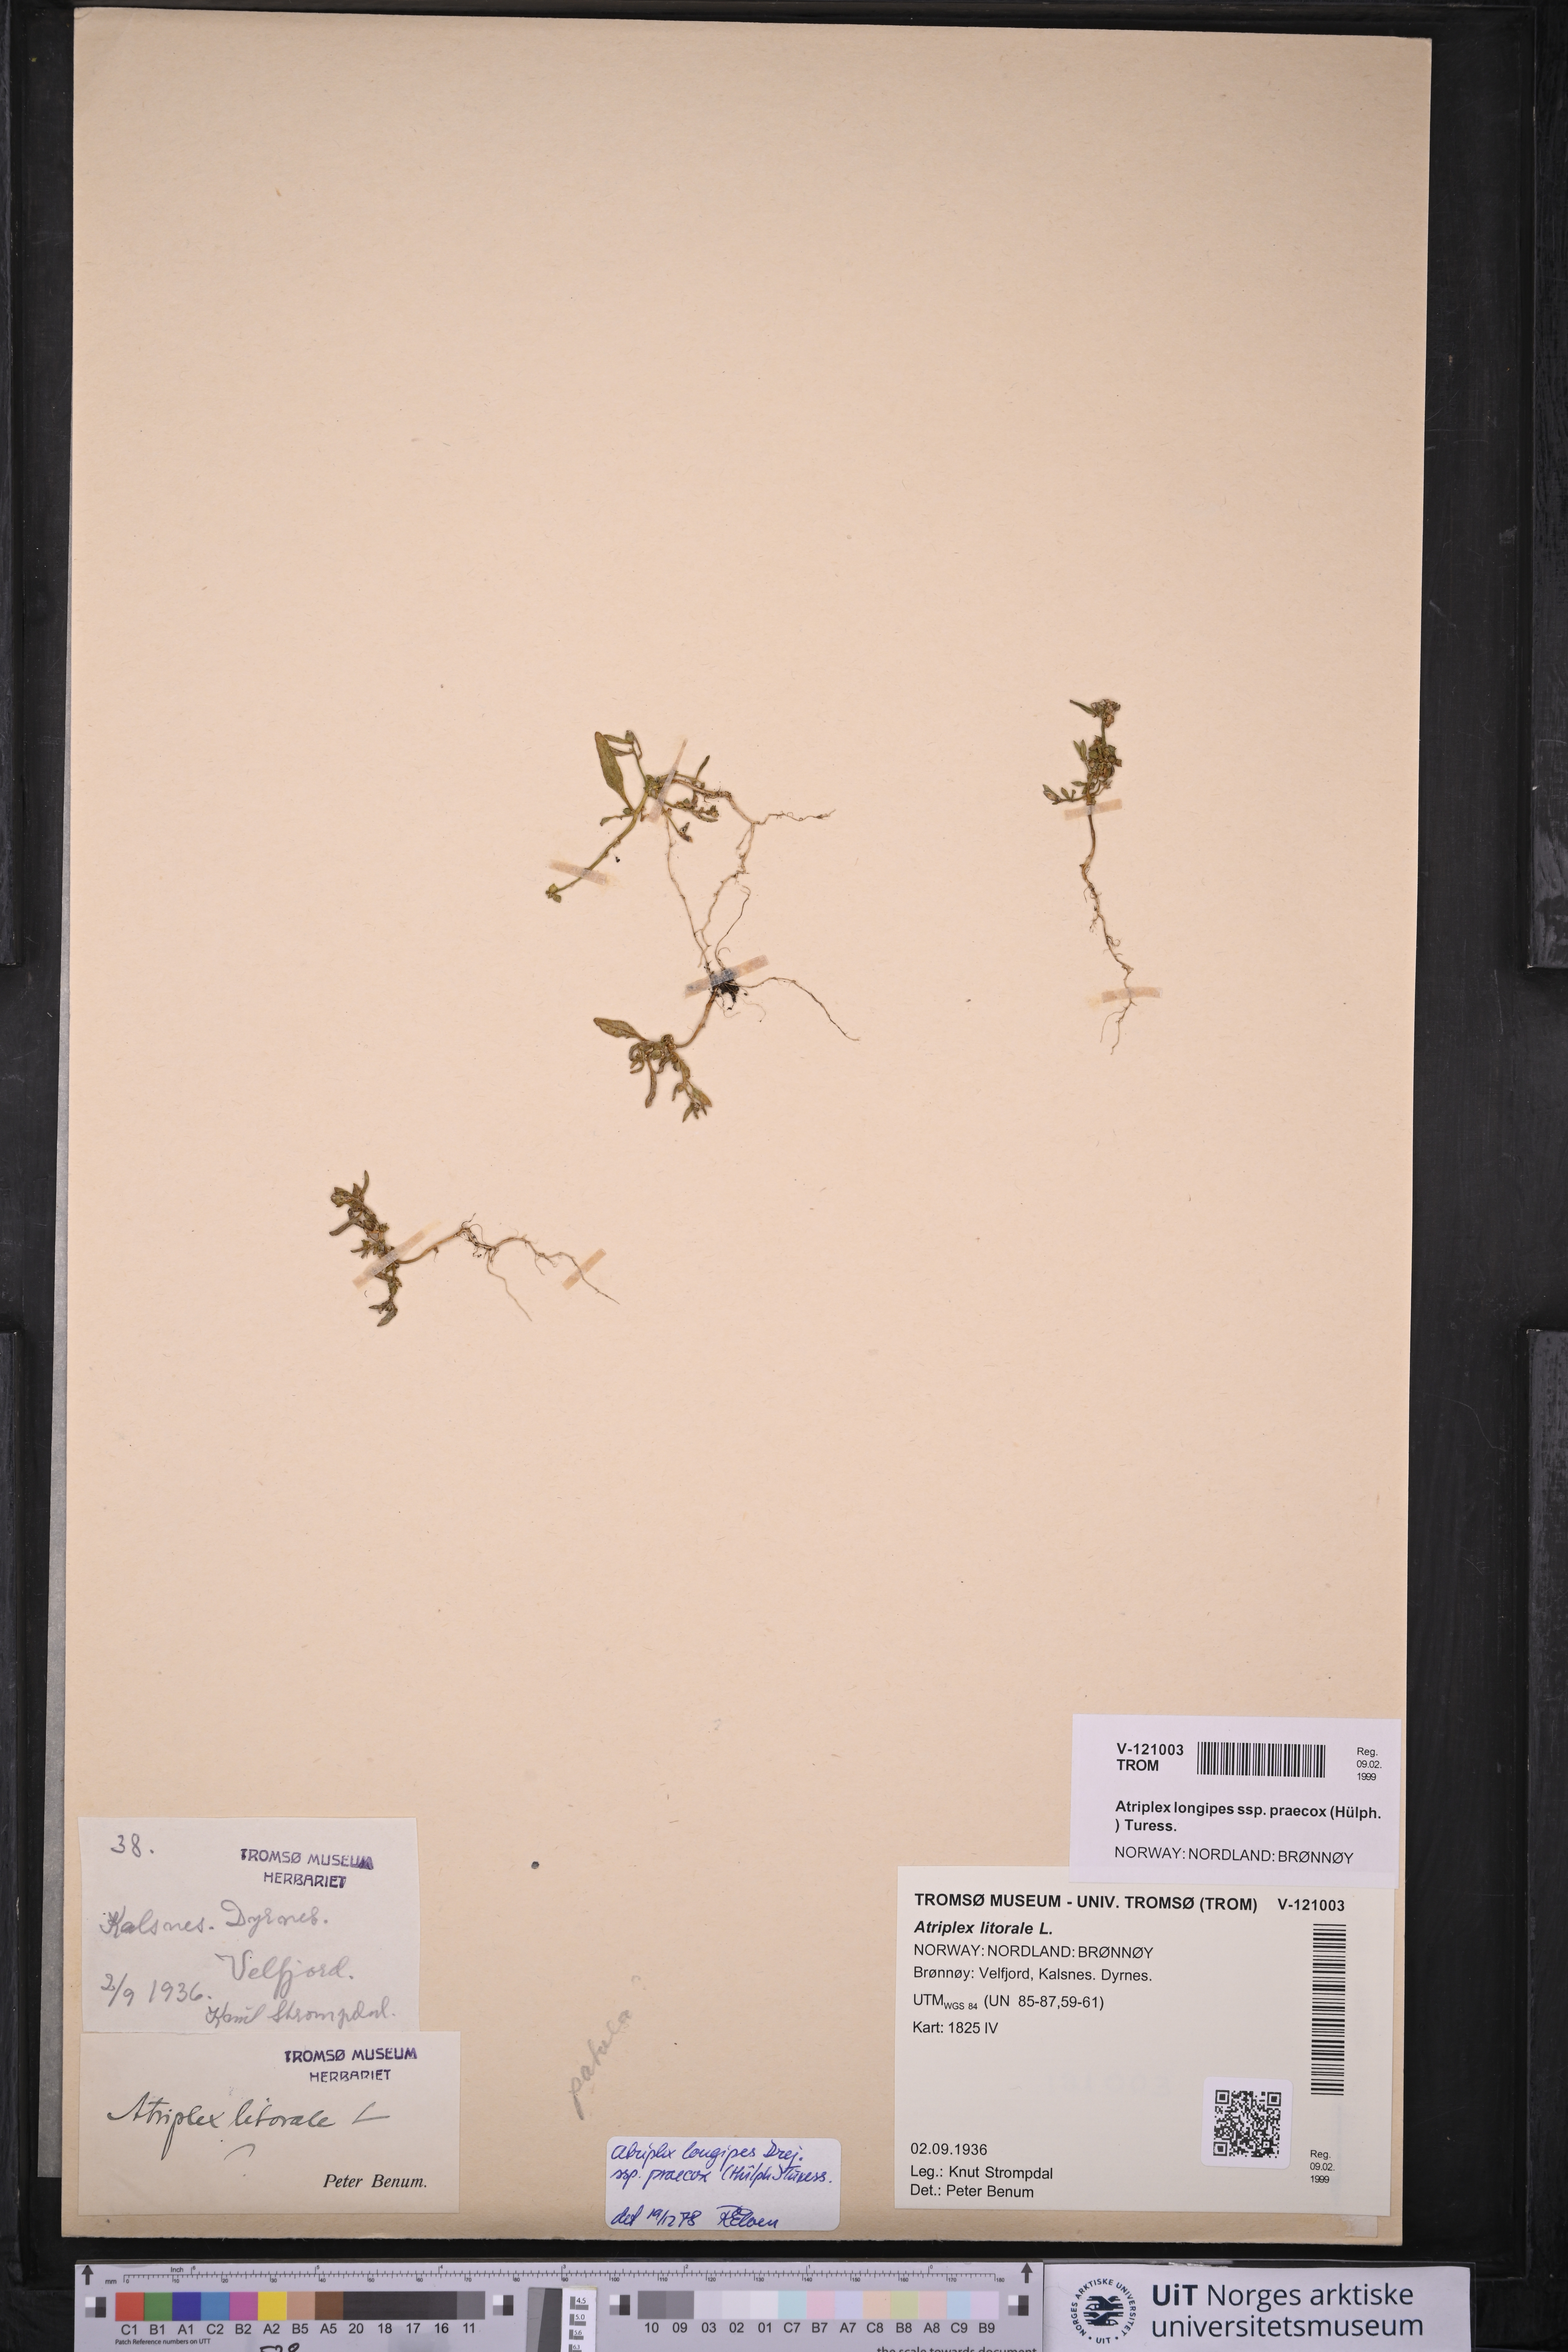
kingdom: Plantae
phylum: Tracheophyta
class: Magnoliopsida
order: Caryophyllales
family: Amaranthaceae
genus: Atriplex
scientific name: Atriplex praecox
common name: Early orache
